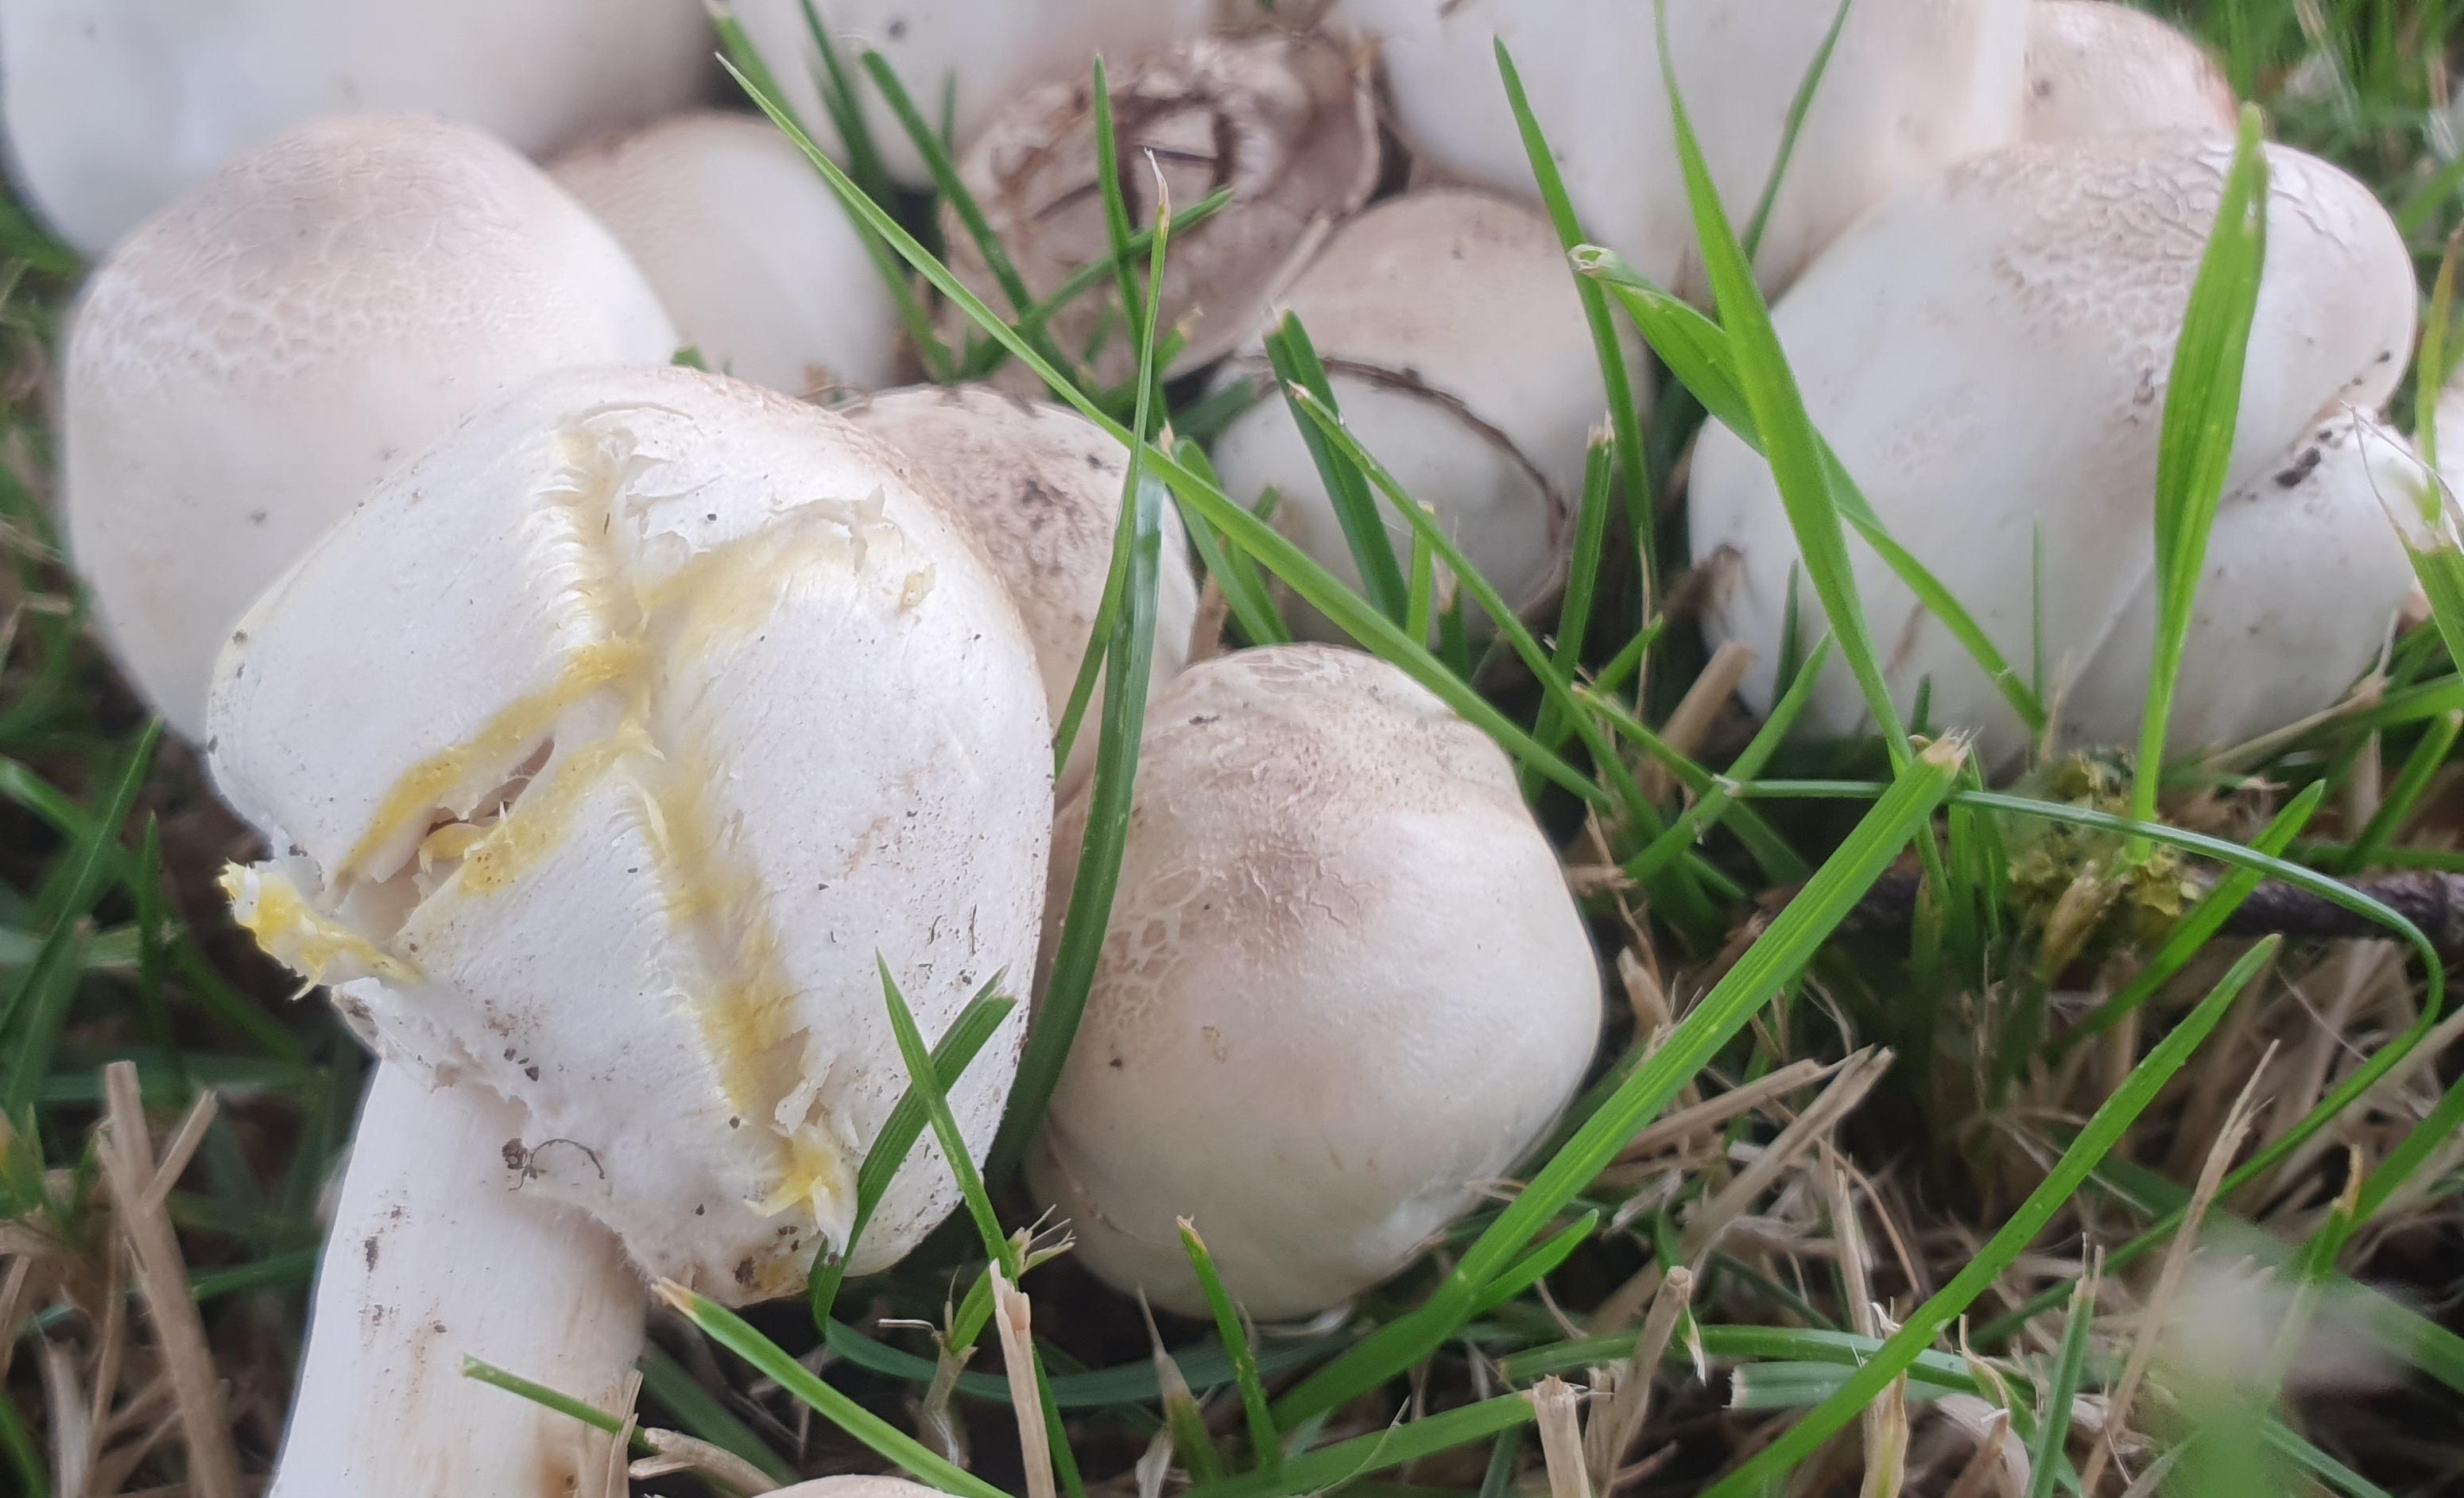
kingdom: Fungi
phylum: Basidiomycota
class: Agaricomycetes
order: Agaricales
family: Agaricaceae
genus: Agaricus
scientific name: Agaricus xanthodermus
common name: karbol-champignon
